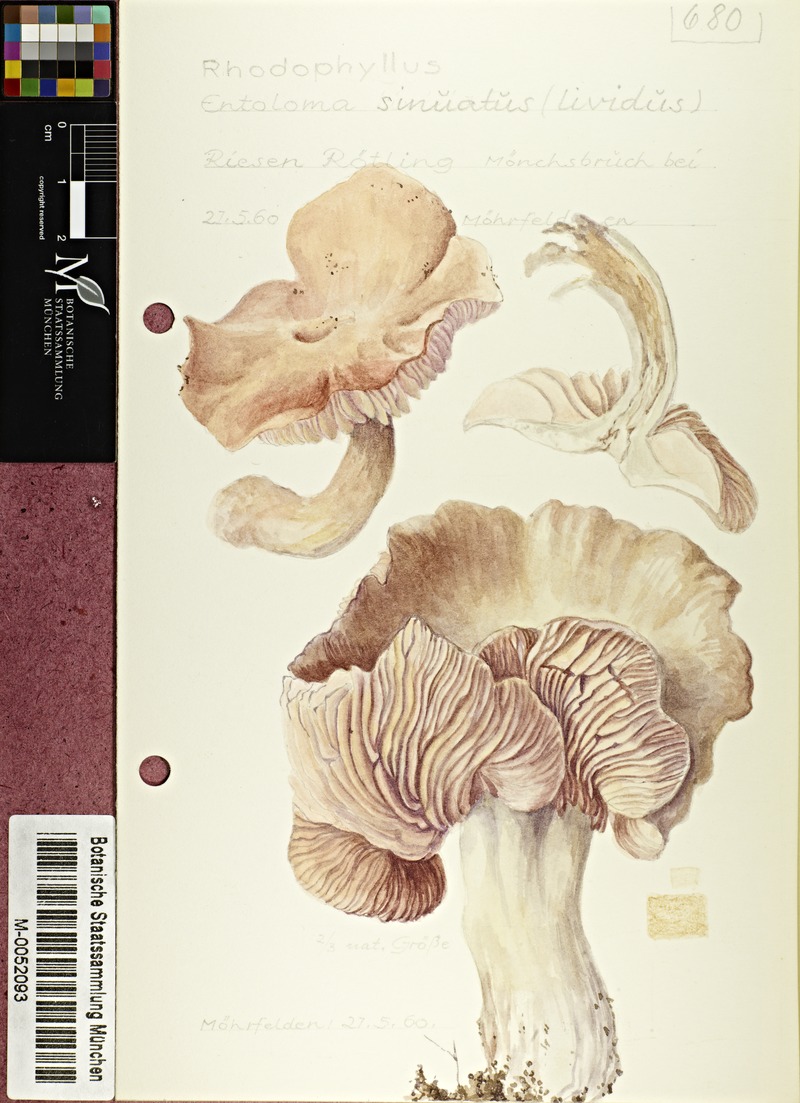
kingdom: Fungi
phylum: Basidiomycota
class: Agaricomycetes
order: Agaricales
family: Entolomataceae
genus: Entoloma
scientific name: Entoloma sinuatum
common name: Livid pinkgill
